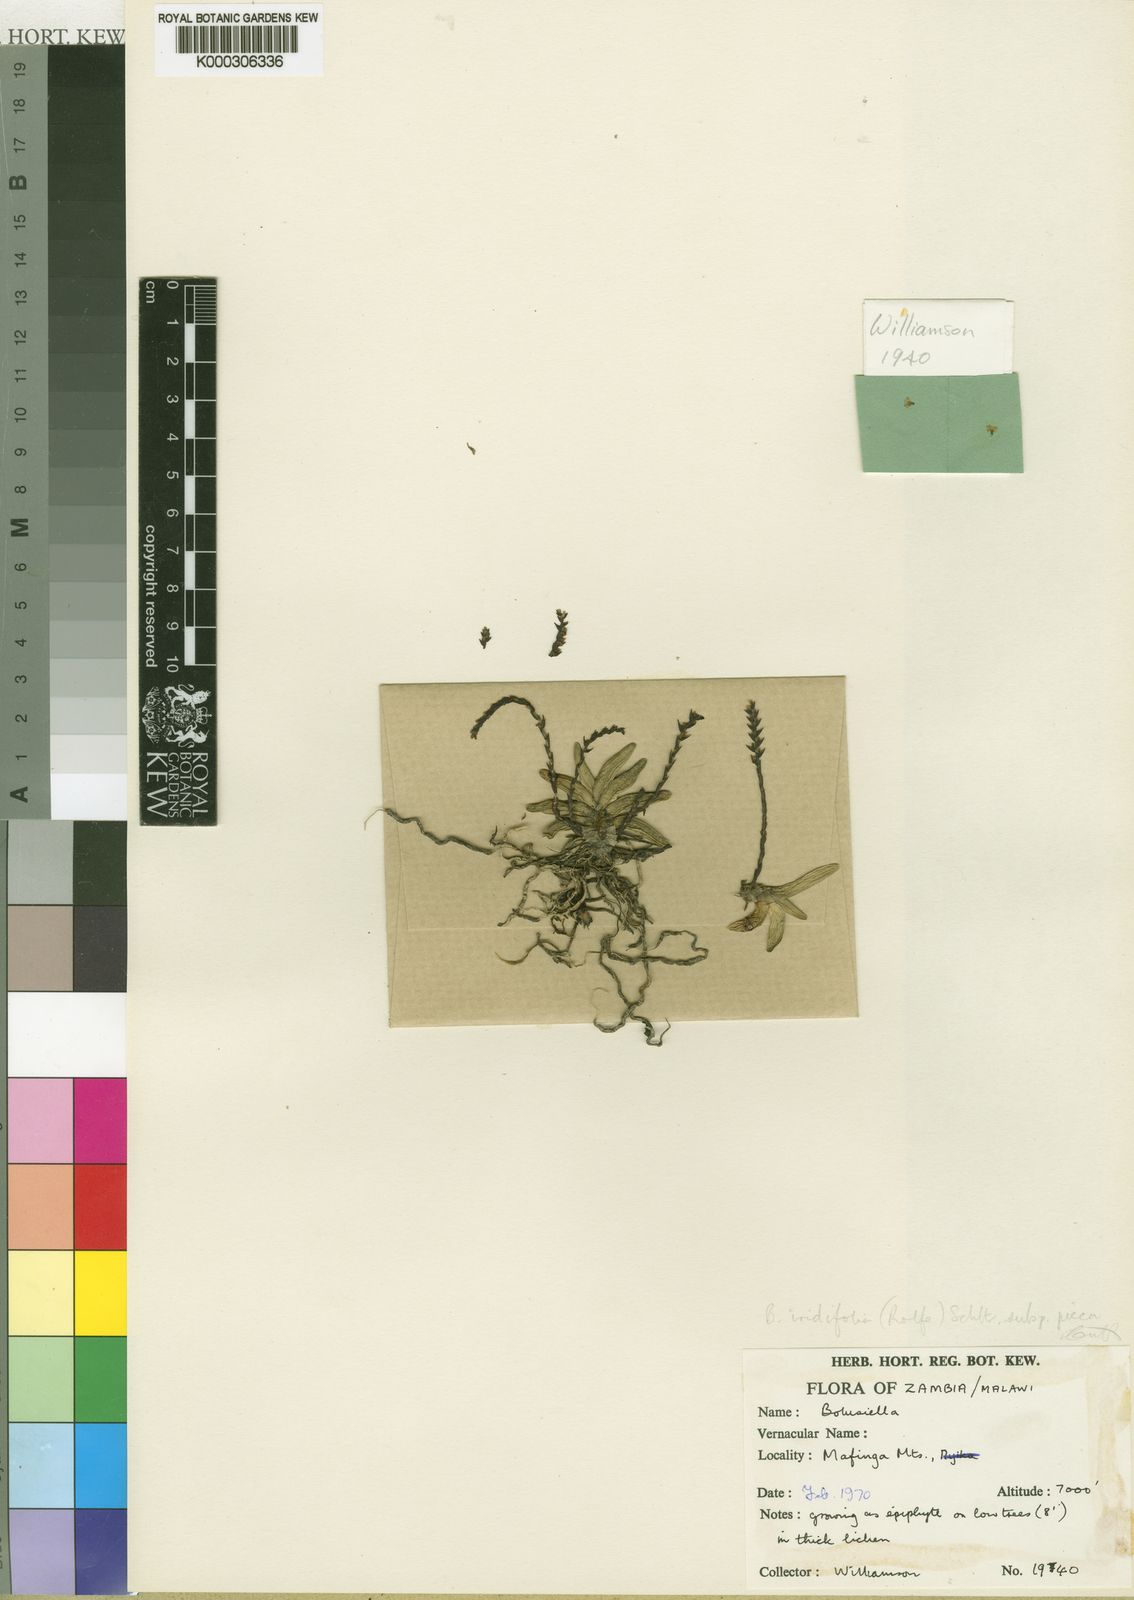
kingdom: Plantae
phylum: Tracheophyta
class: Liliopsida
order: Asparagales
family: Orchidaceae
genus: Bolusiella
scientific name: Bolusiella iridifolia
